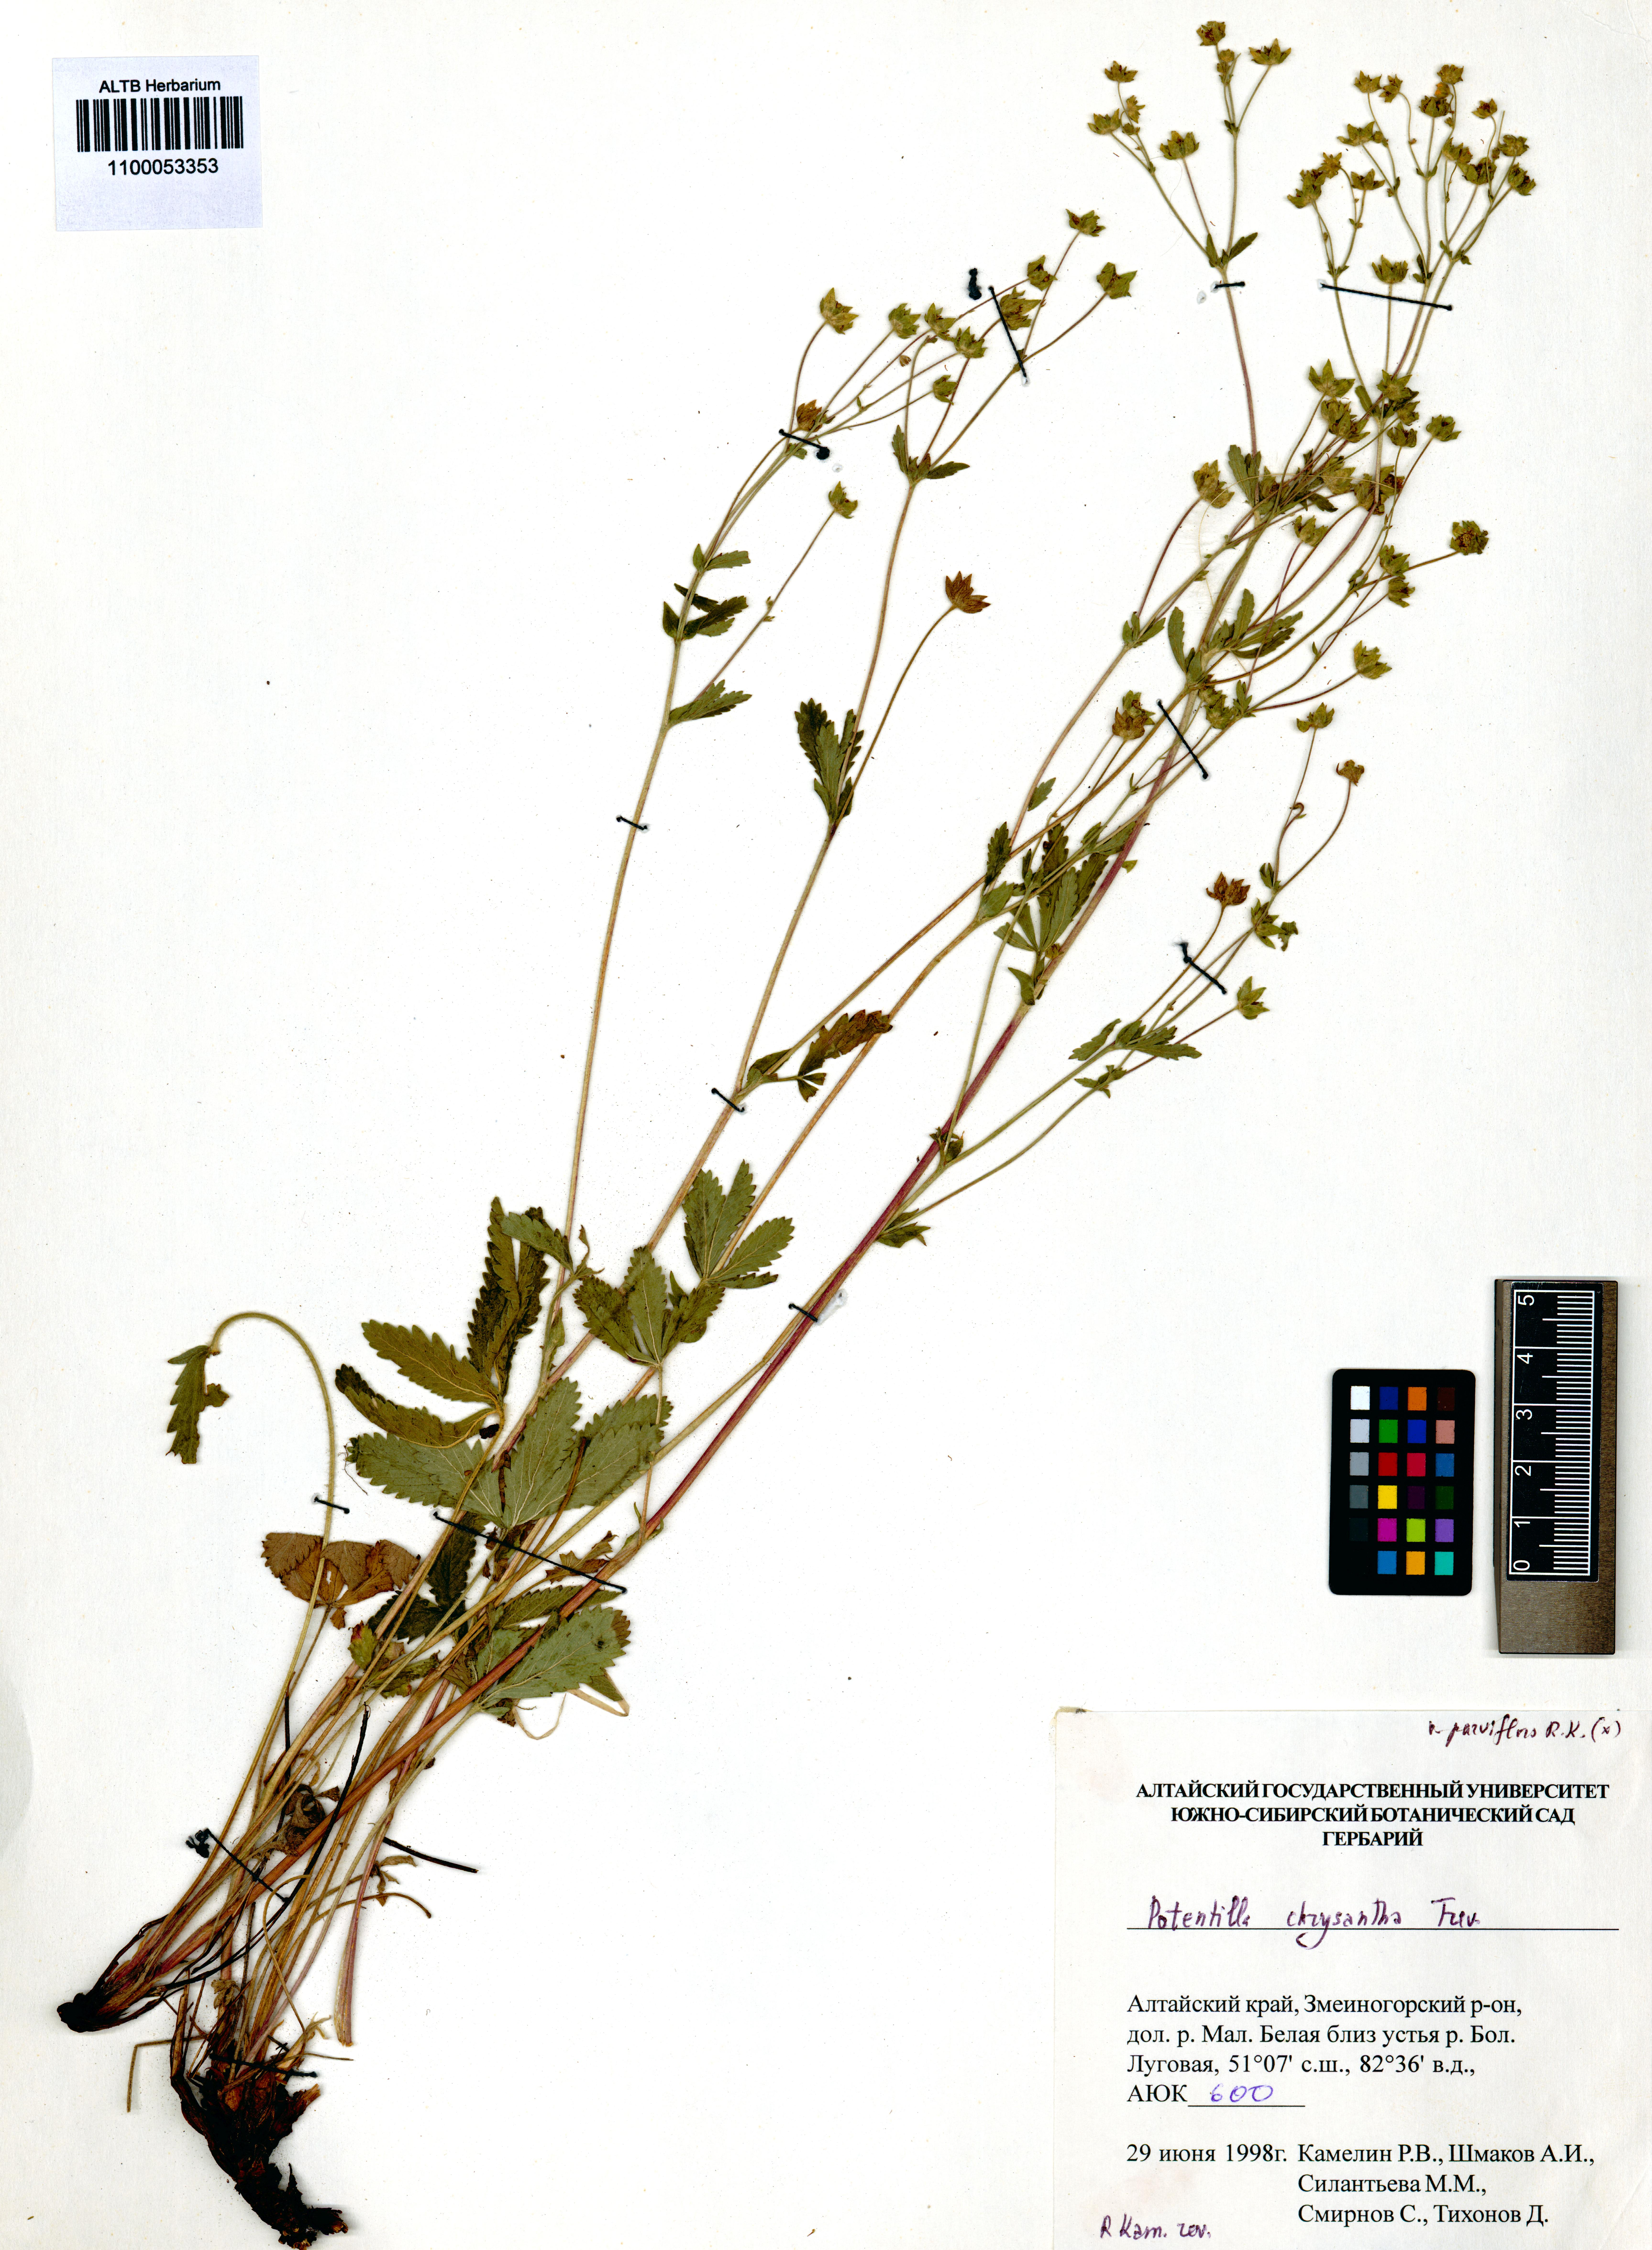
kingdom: Plantae
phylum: Tracheophyta
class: Magnoliopsida
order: Rosales
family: Rosaceae
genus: Potentilla
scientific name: Potentilla chrysantha
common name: Thuringian cinquefoil
